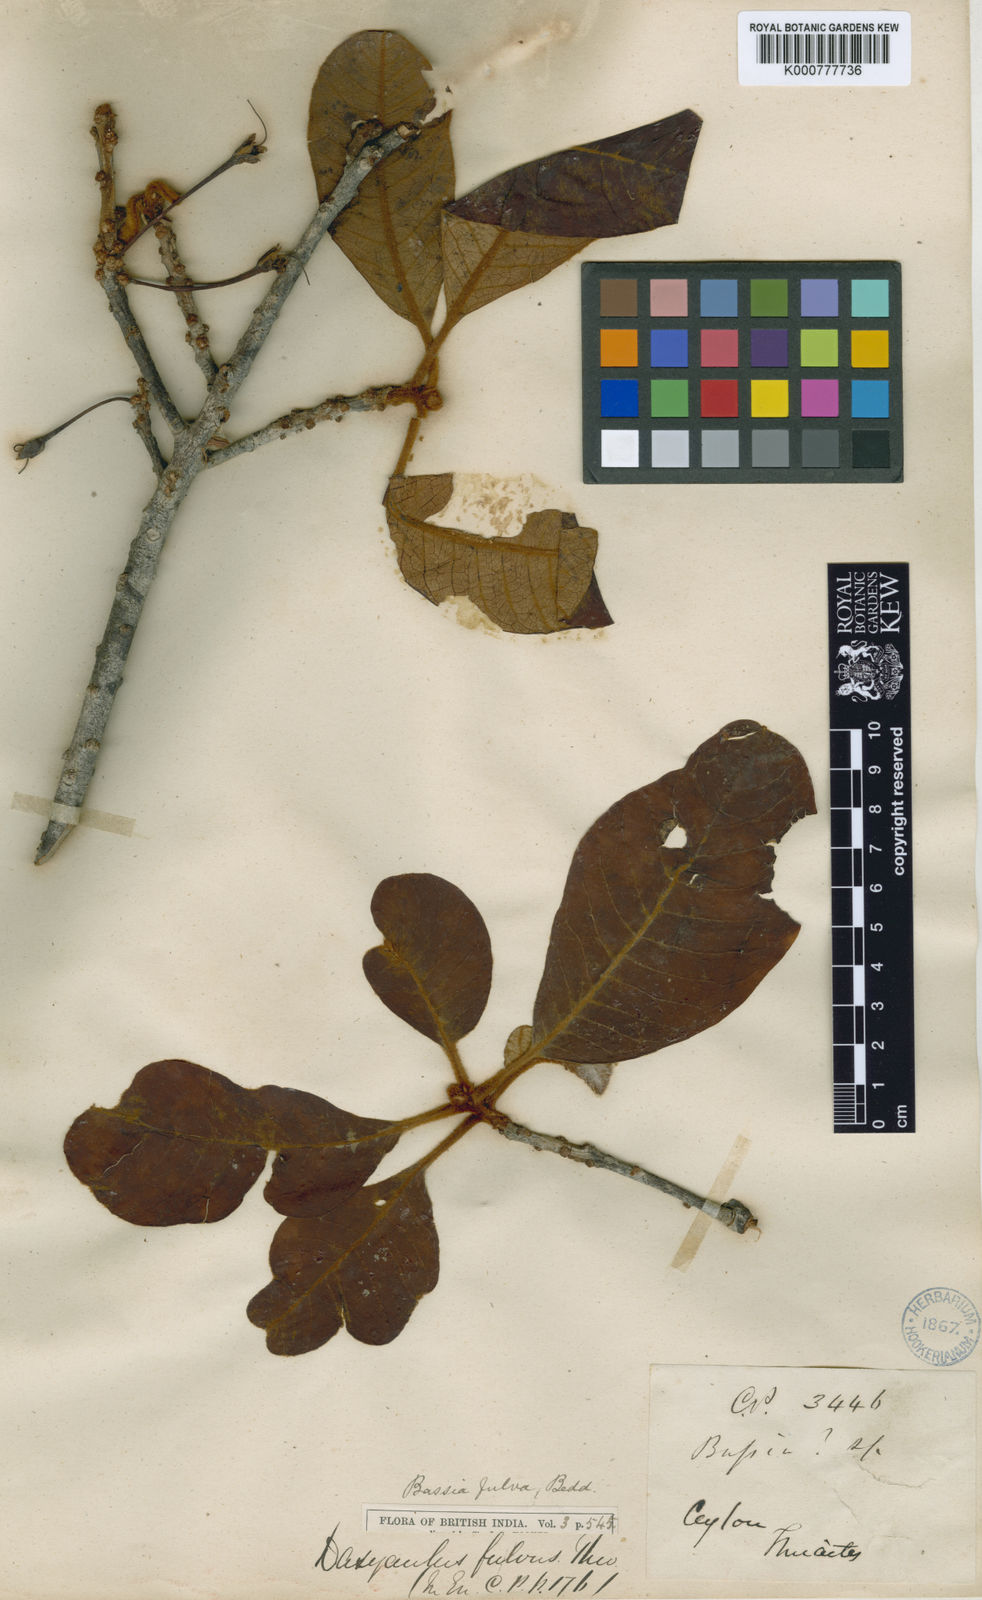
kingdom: Plantae
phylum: Tracheophyta
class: Magnoliopsida
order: Ericales
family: Sapotaceae
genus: Madhuca
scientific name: Madhuca fulva
